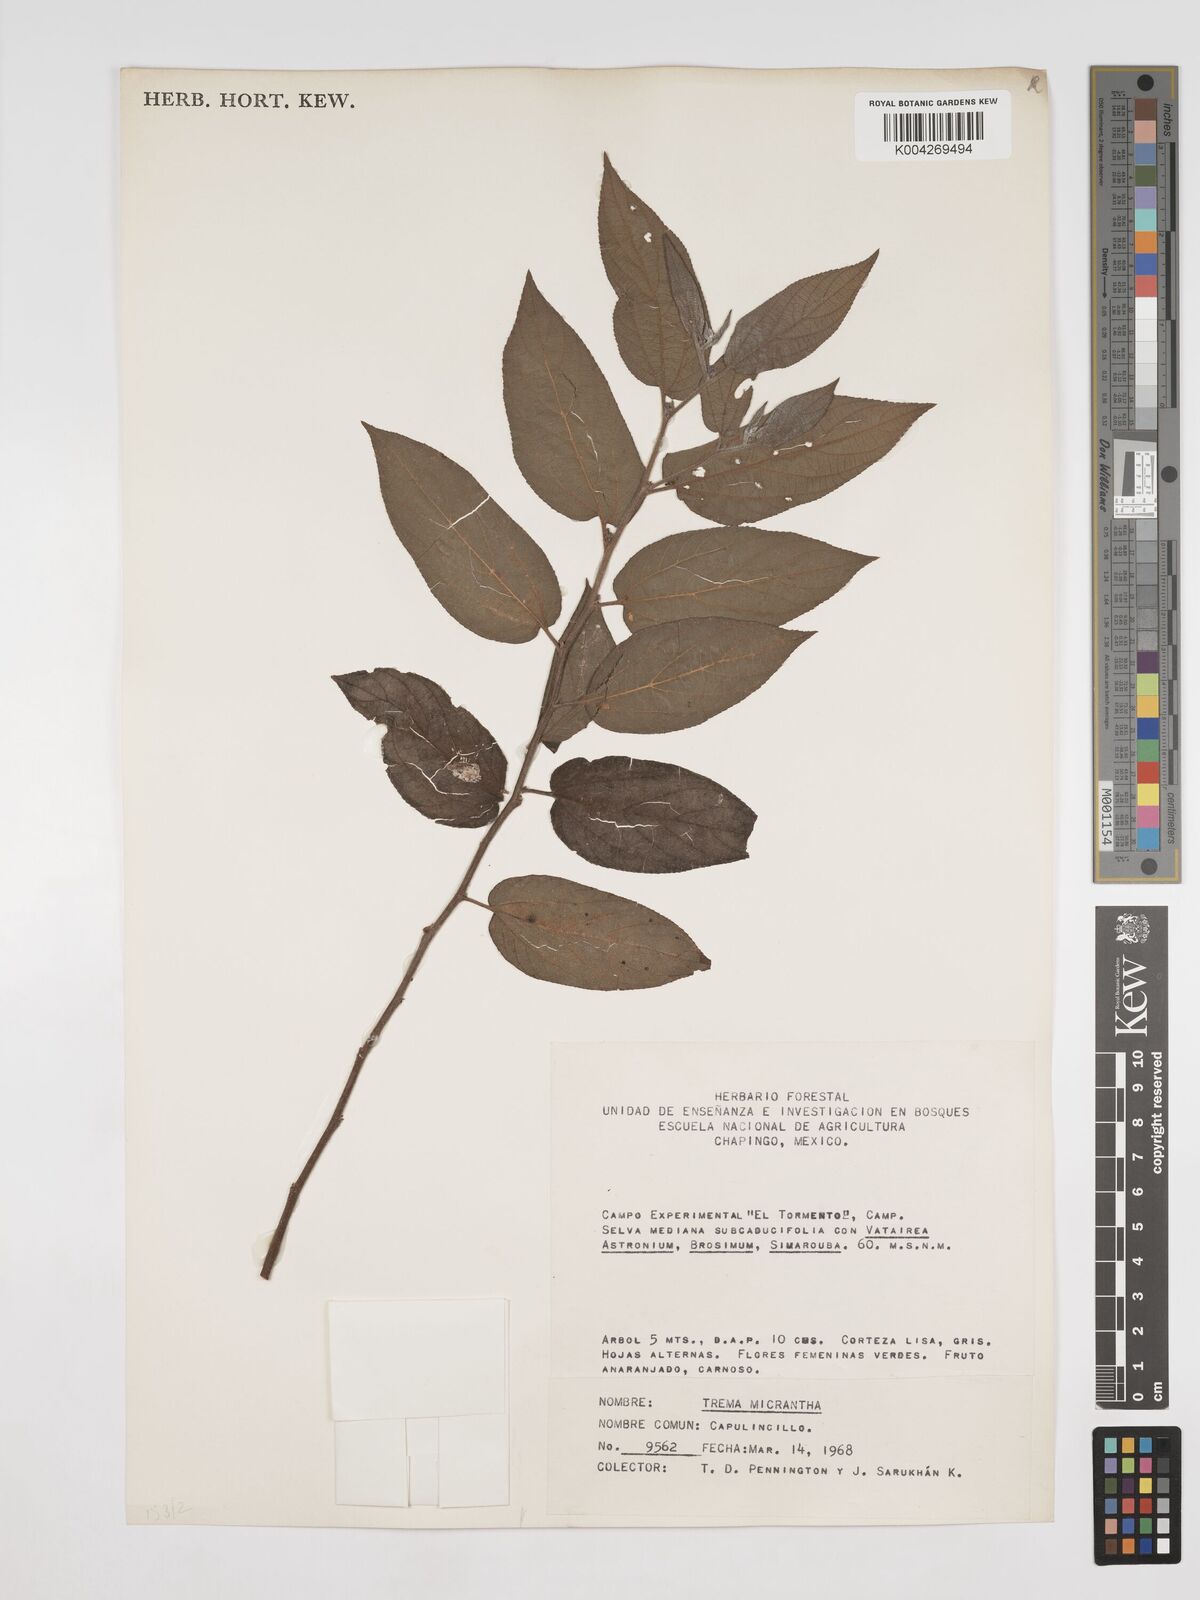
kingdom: Plantae
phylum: Tracheophyta
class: Magnoliopsida
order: Rosales
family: Cannabaceae
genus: Trema
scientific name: Trema micranthum
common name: Jamaican nettletree
